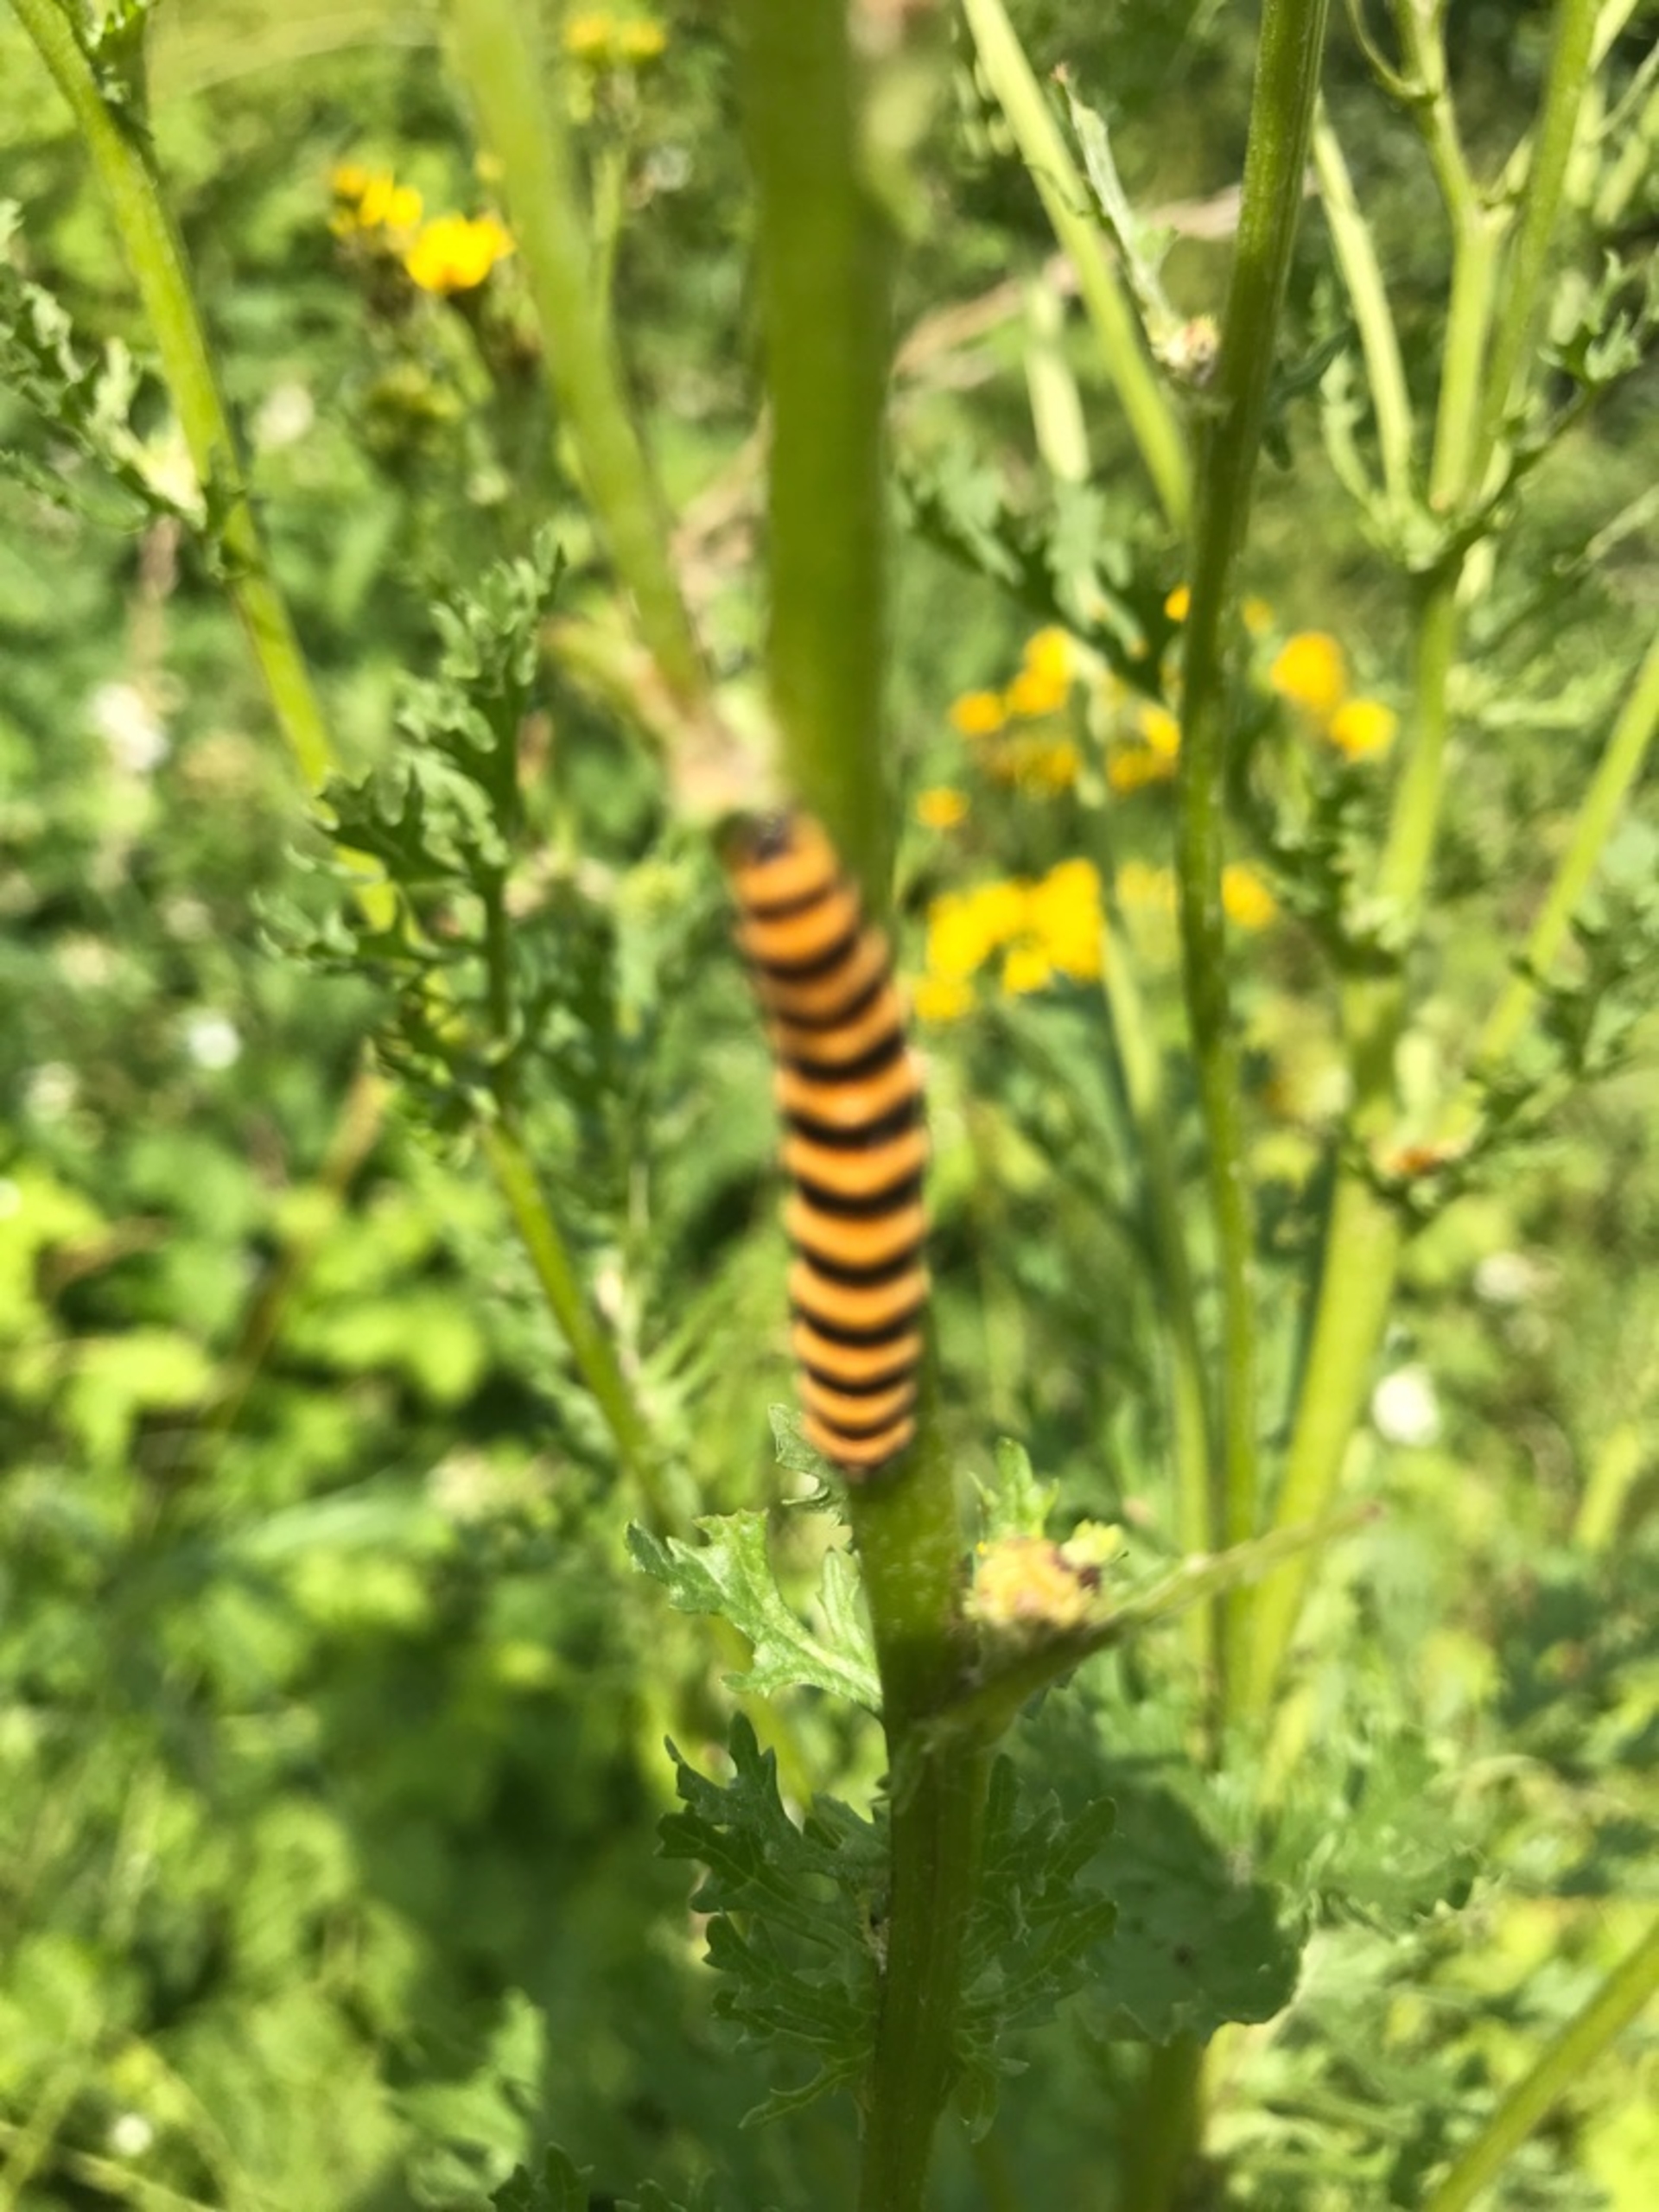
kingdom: Animalia
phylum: Arthropoda
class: Insecta
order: Lepidoptera
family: Erebidae
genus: Tyria
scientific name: Tyria jacobaeae
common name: Blodplet
